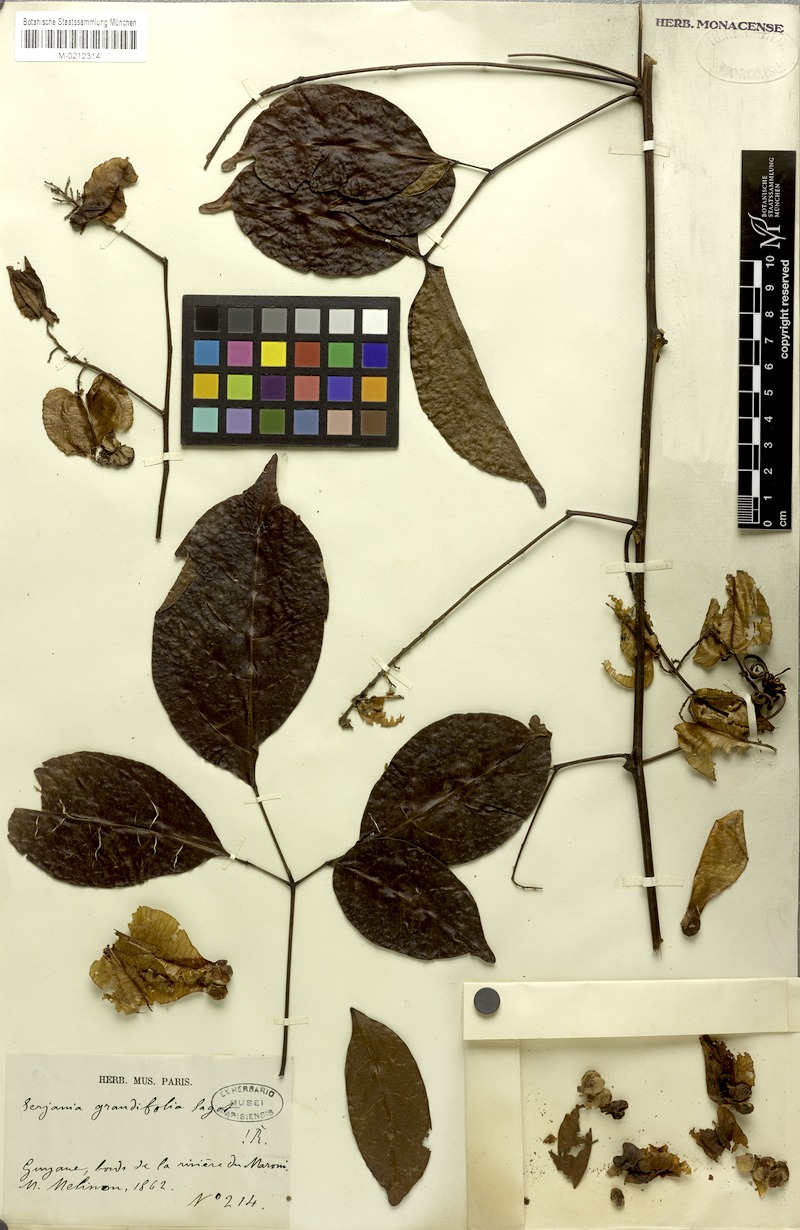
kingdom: Plantae
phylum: Tracheophyta
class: Magnoliopsida
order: Sapindales
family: Sapindaceae
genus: Serjania
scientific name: Serjania grandifolia
